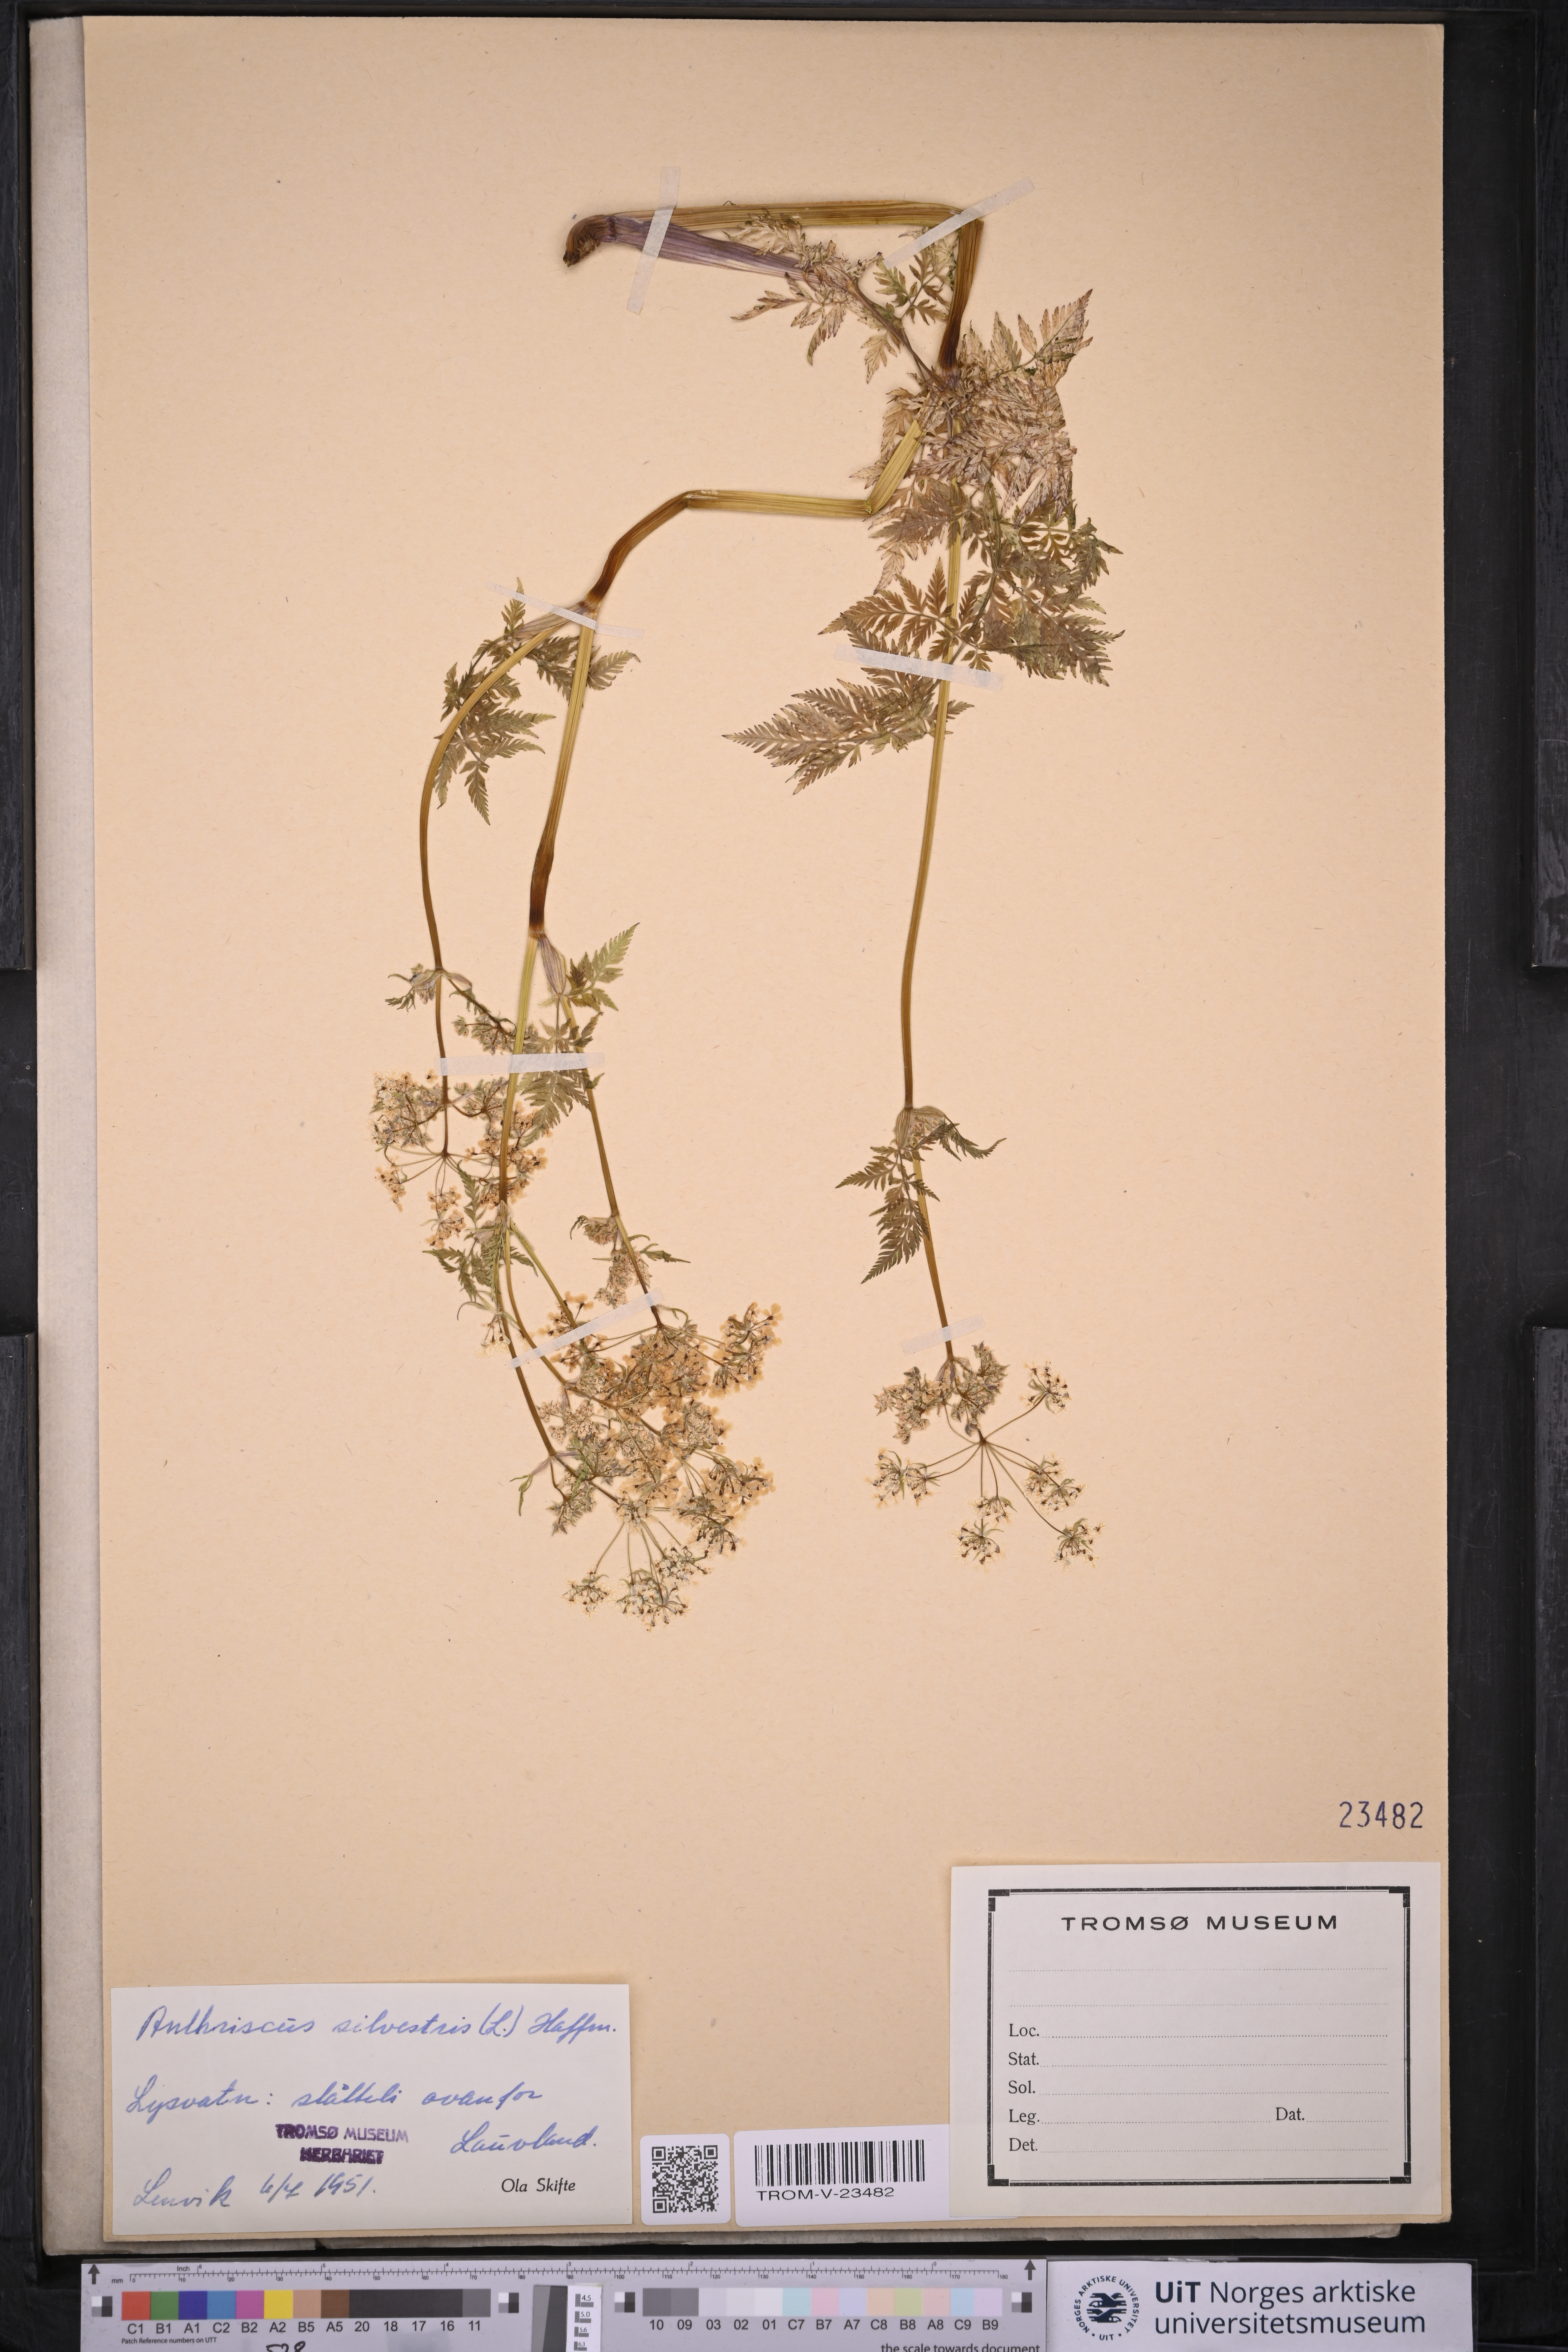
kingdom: Plantae
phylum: Tracheophyta
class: Magnoliopsida
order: Apiales
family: Apiaceae
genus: Anthriscus
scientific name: Anthriscus sylvestris
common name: Cow parsley
